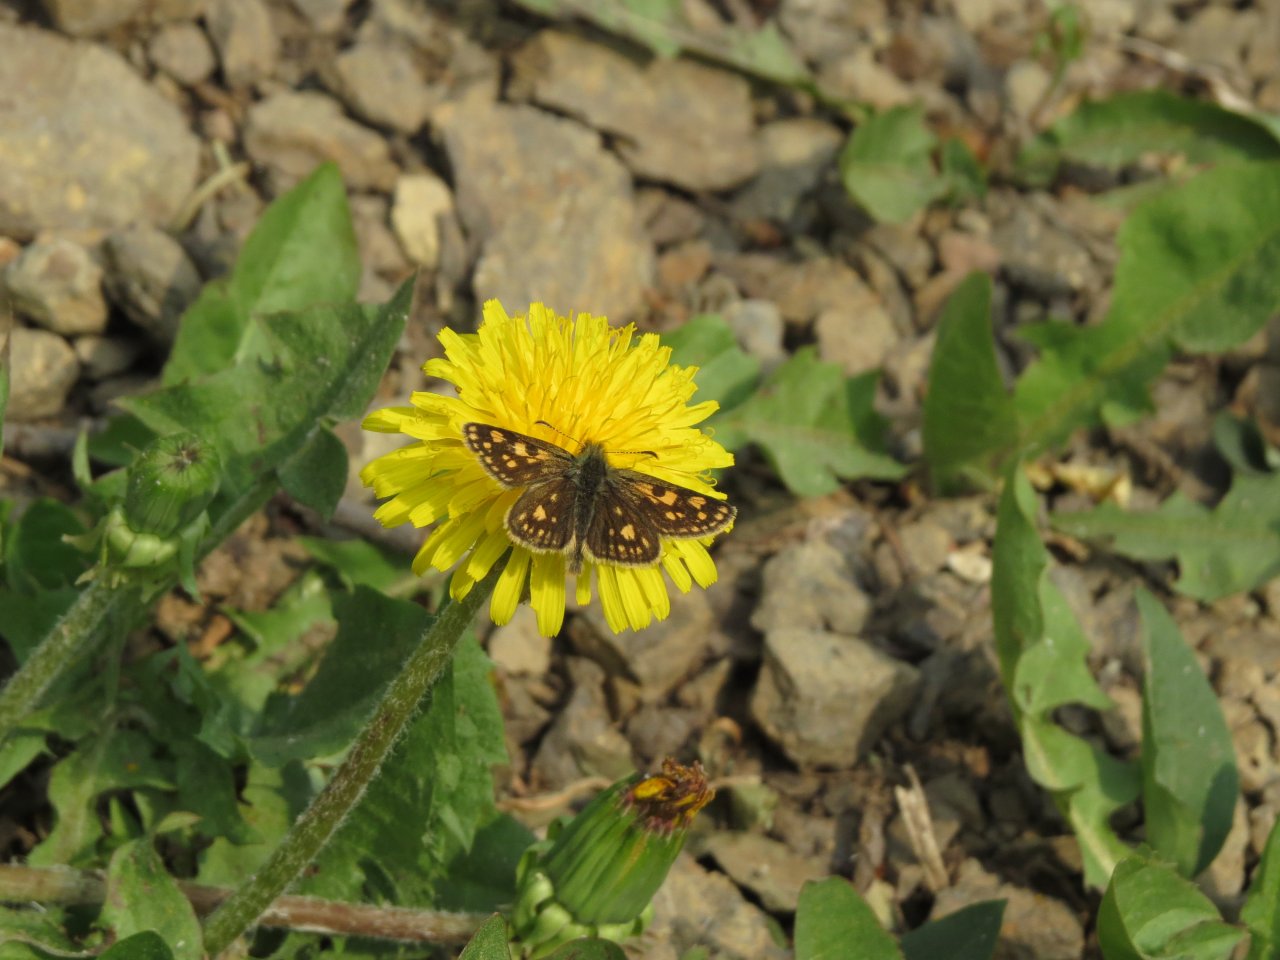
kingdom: Animalia
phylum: Arthropoda
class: Insecta
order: Lepidoptera
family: Hesperiidae
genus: Carterocephalus
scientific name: Carterocephalus palaemon
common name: Chequered Skipper
